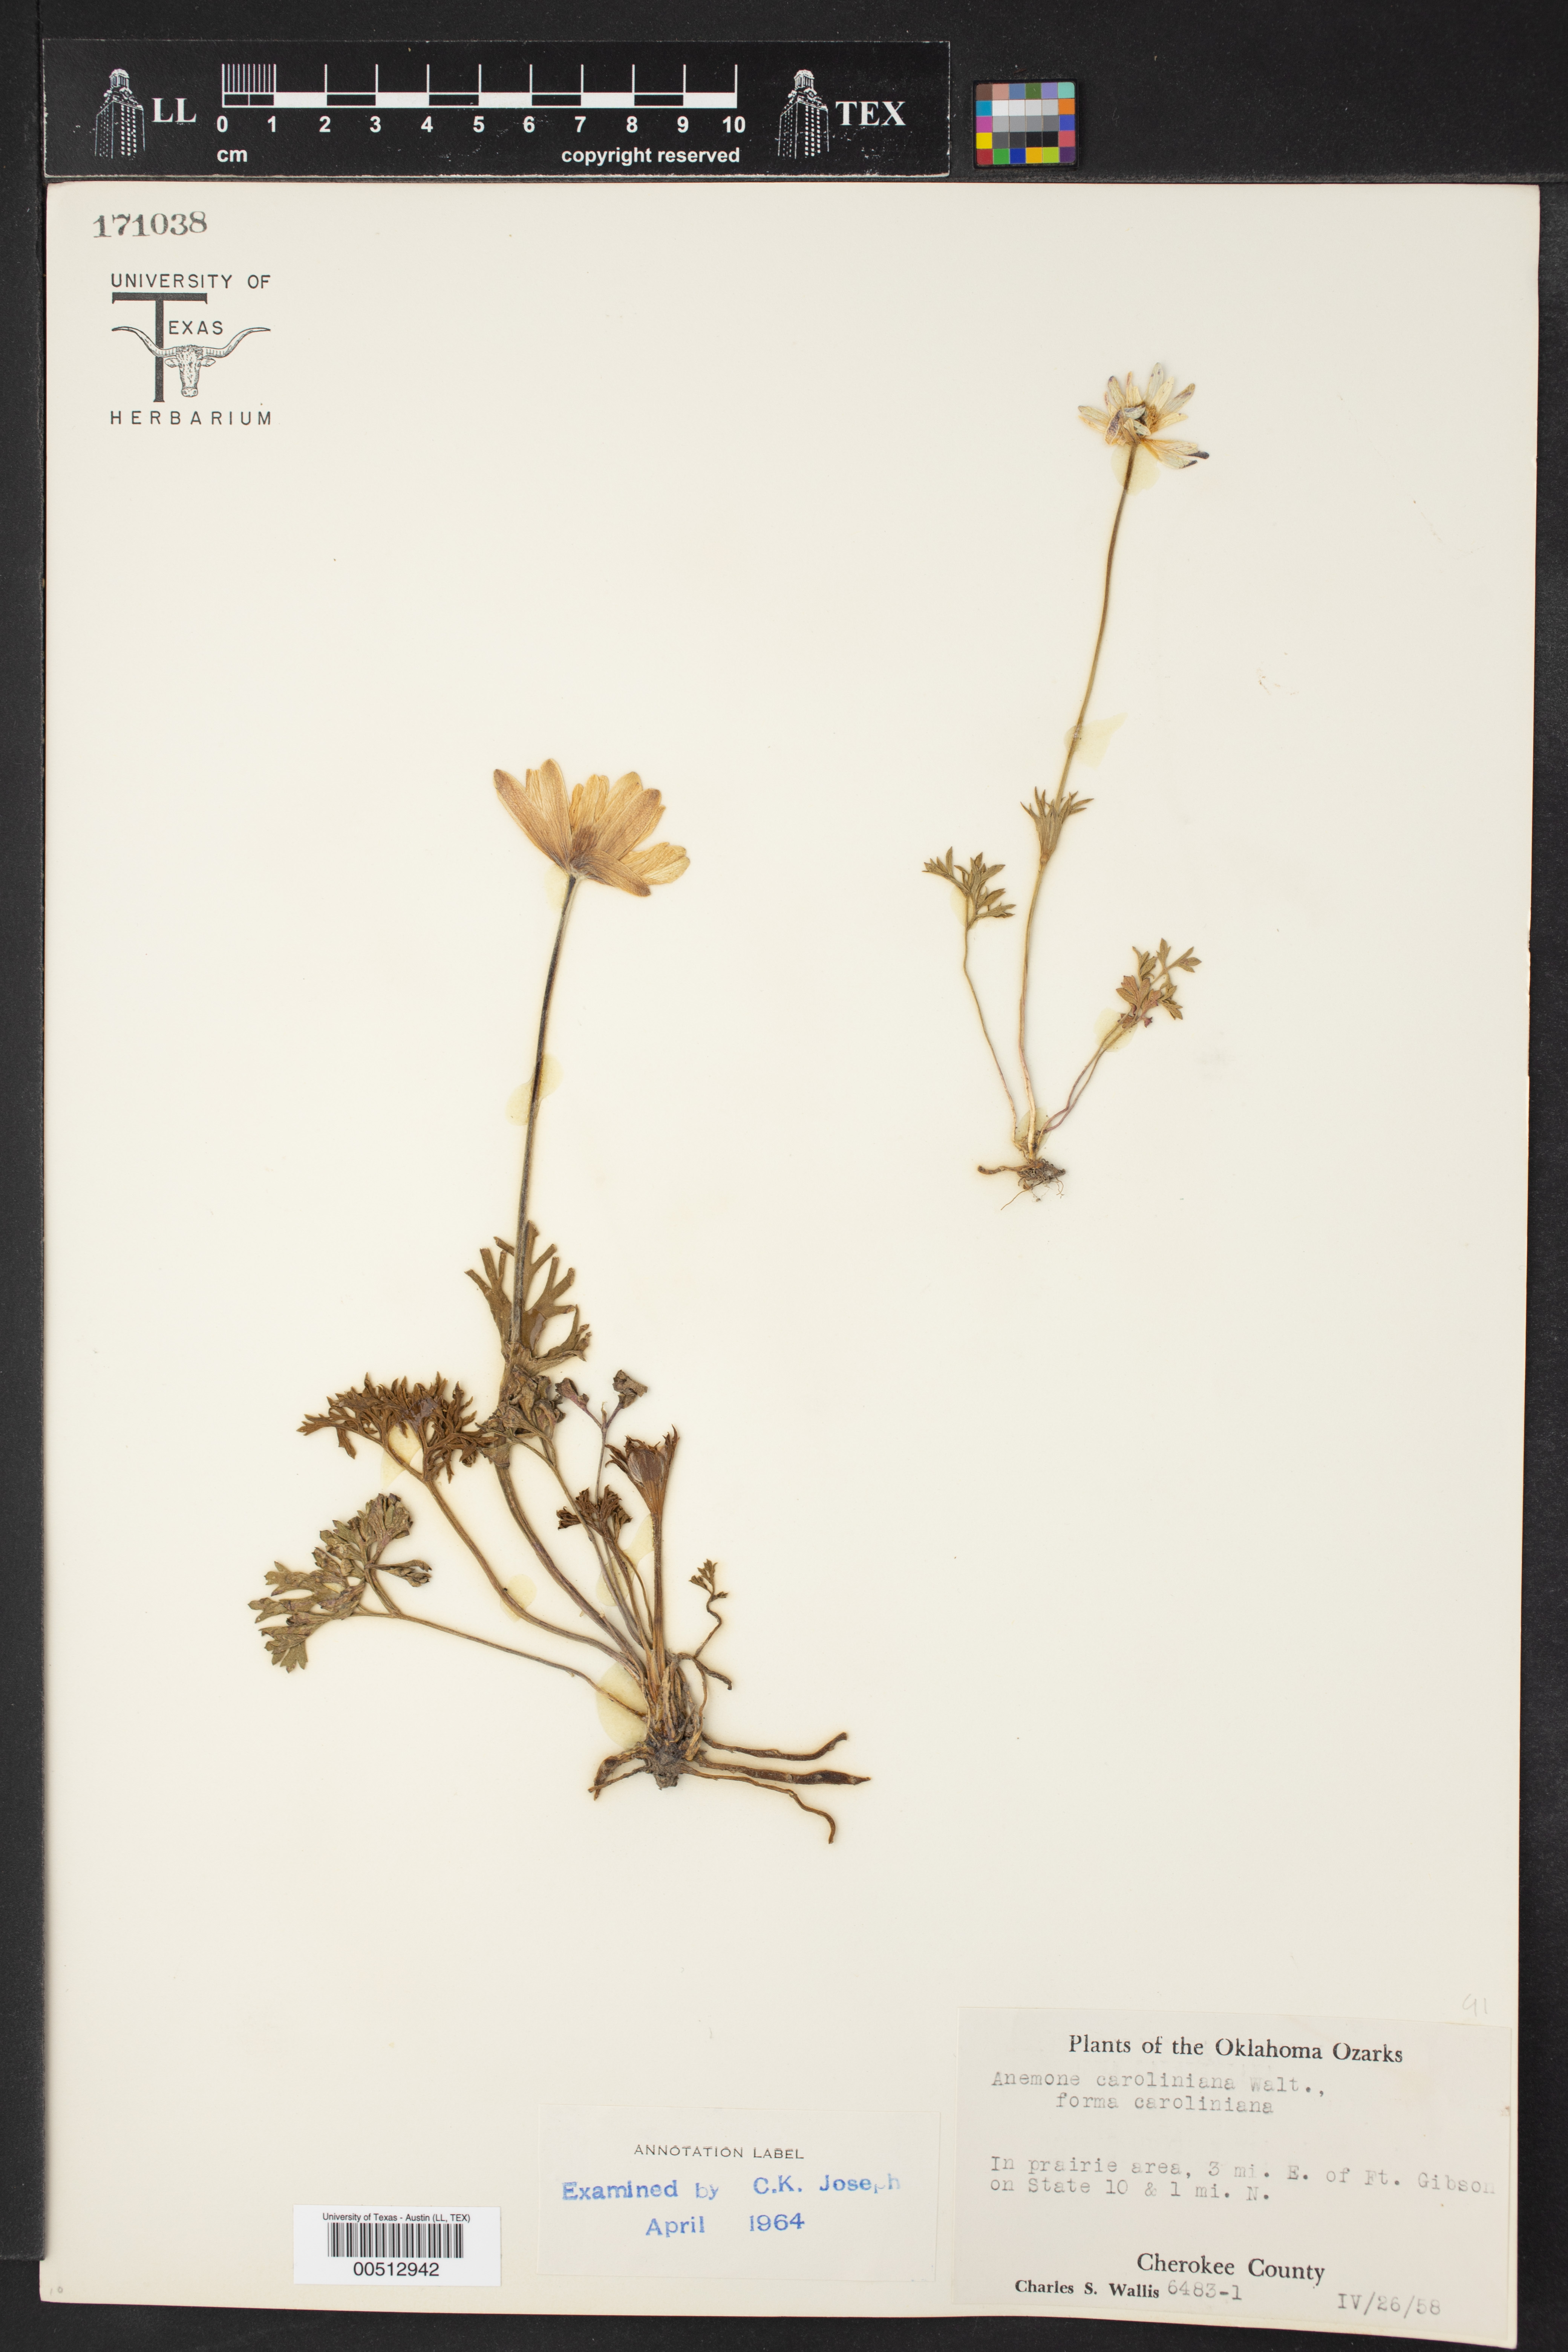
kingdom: Plantae
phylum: Tracheophyta
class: Magnoliopsida
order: Ranunculales
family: Ranunculaceae
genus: Anemone
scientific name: Anemone caroliniana
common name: Carolina anemone
